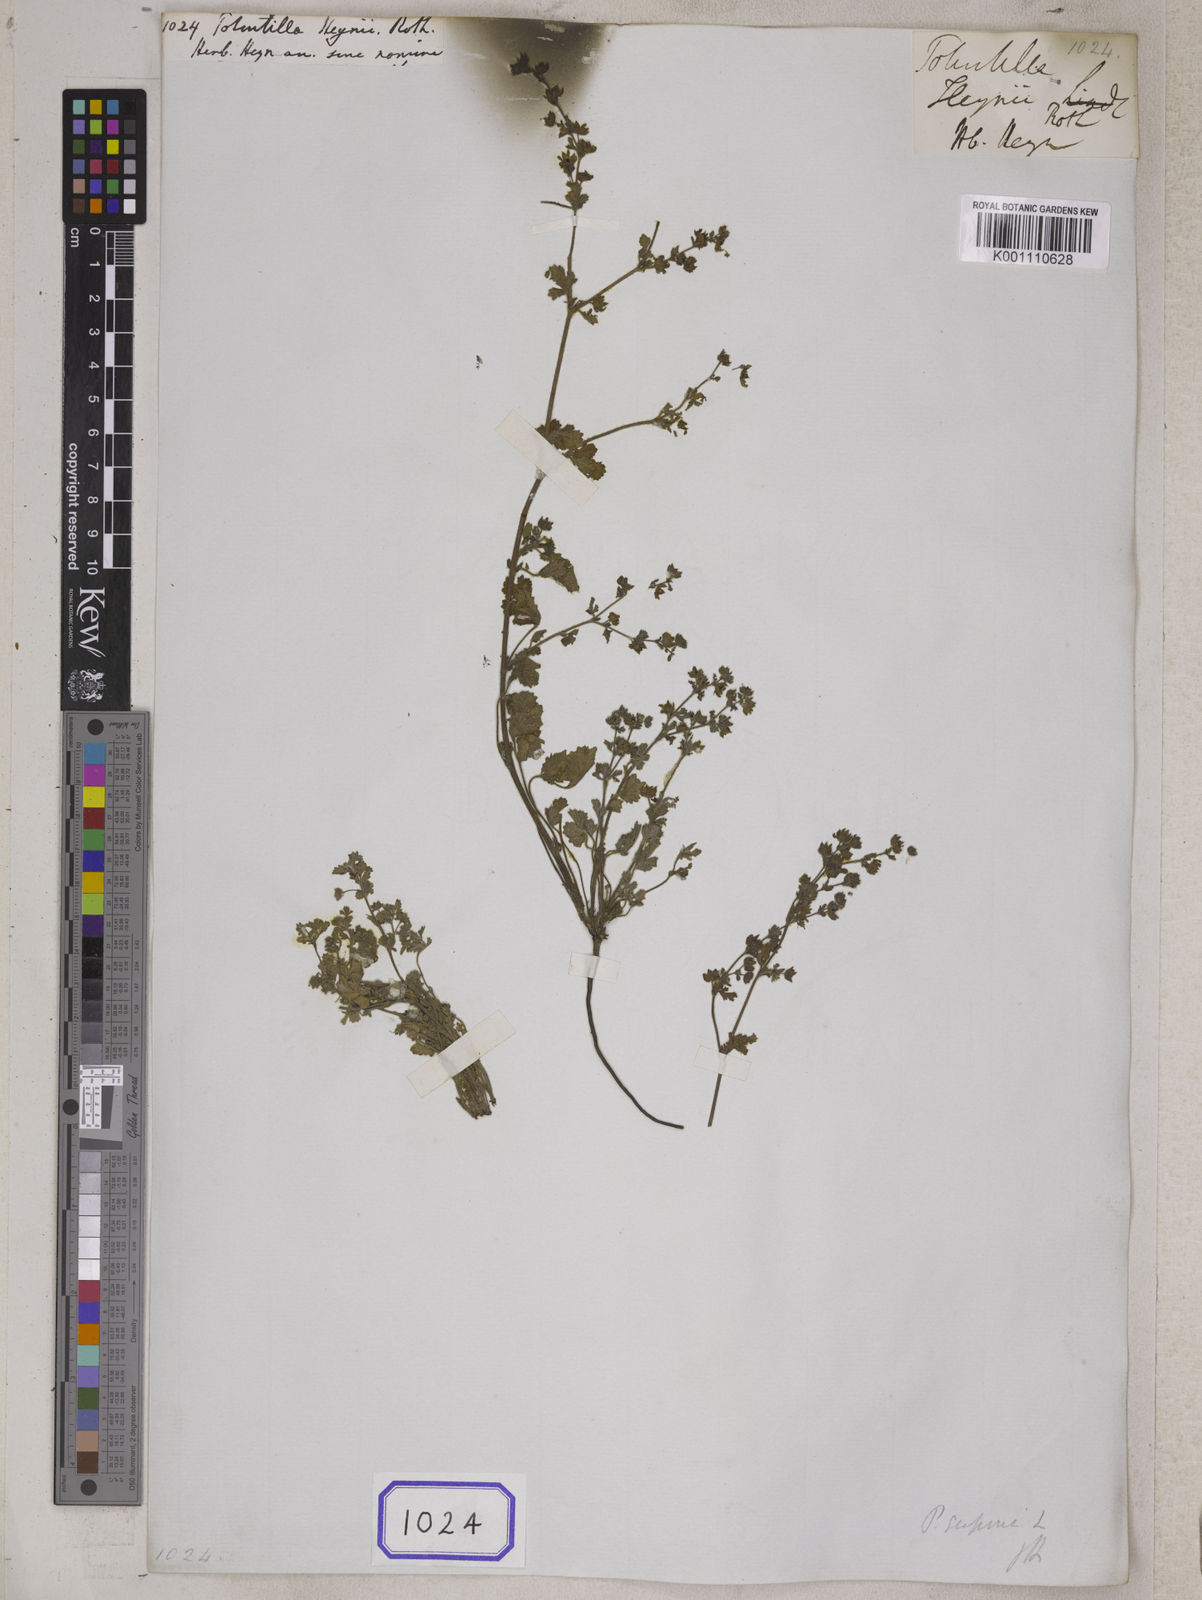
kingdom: Plantae
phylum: Tracheophyta
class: Magnoliopsida
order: Rosales
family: Rosaceae
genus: Potentilla
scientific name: Potentilla heynei
